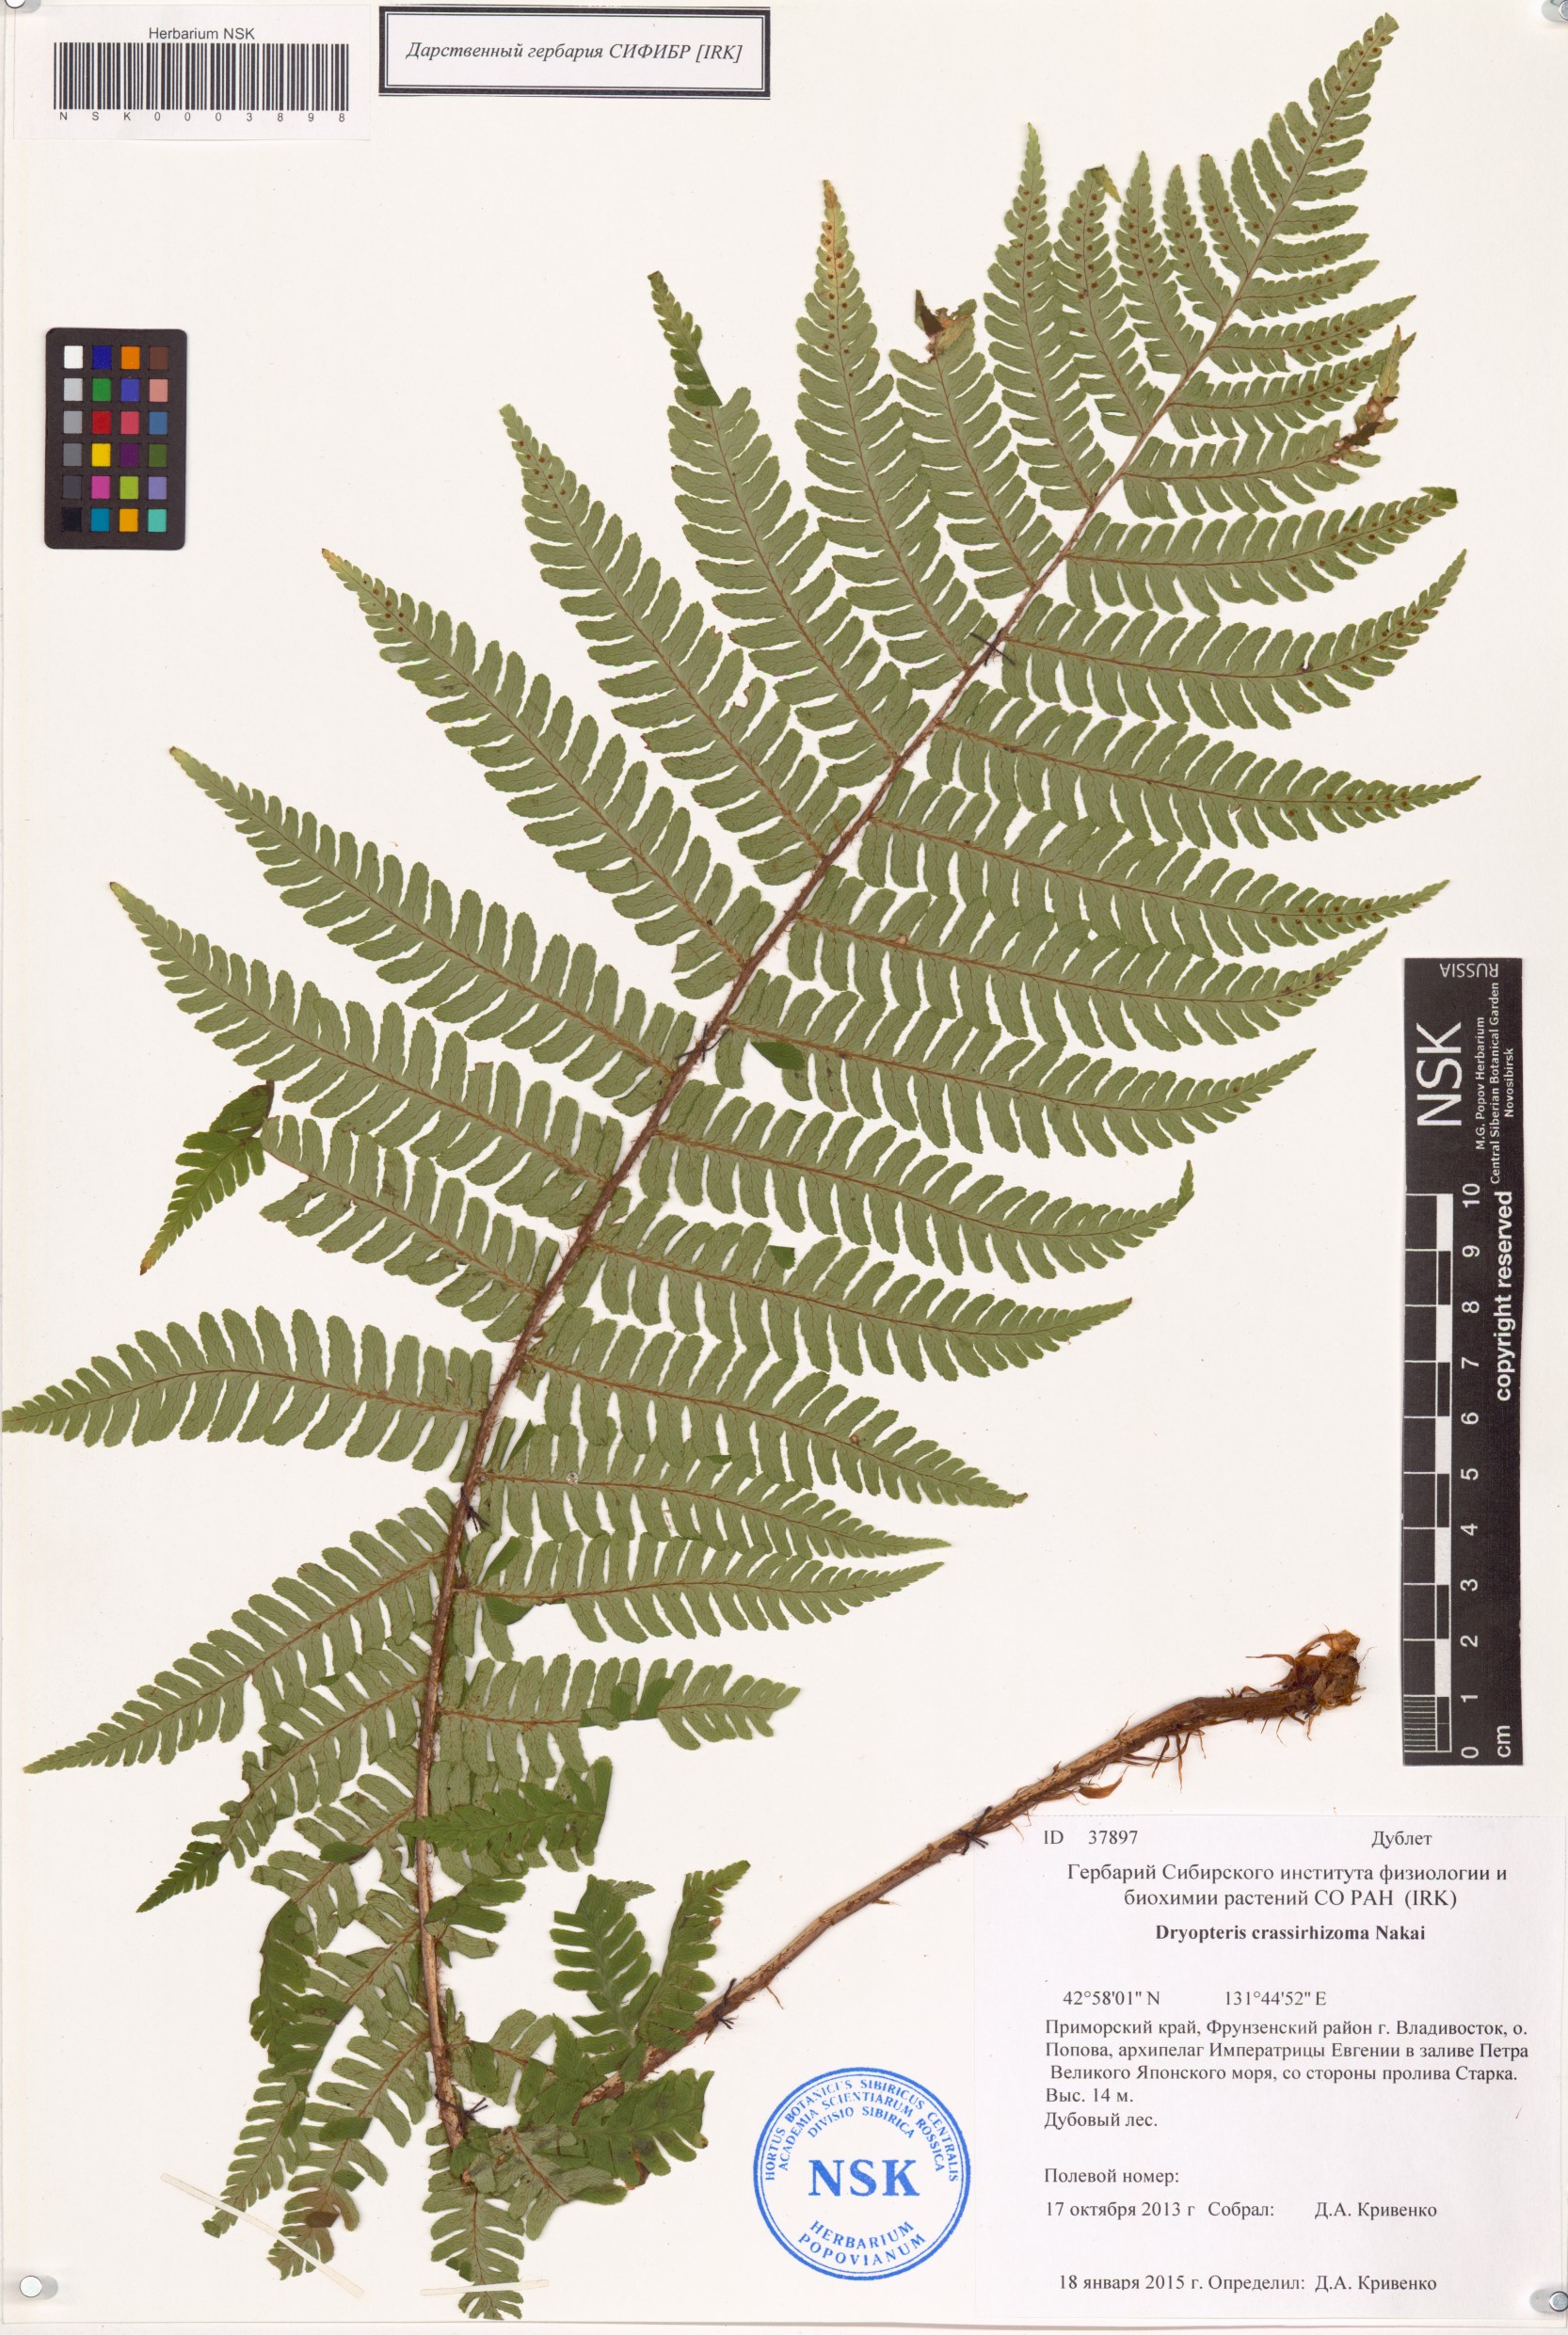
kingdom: Plantae
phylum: Tracheophyta
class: Polypodiopsida
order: Polypodiales
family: Dryopteridaceae
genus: Dryopteris
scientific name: Dryopteris crassirhizoma
